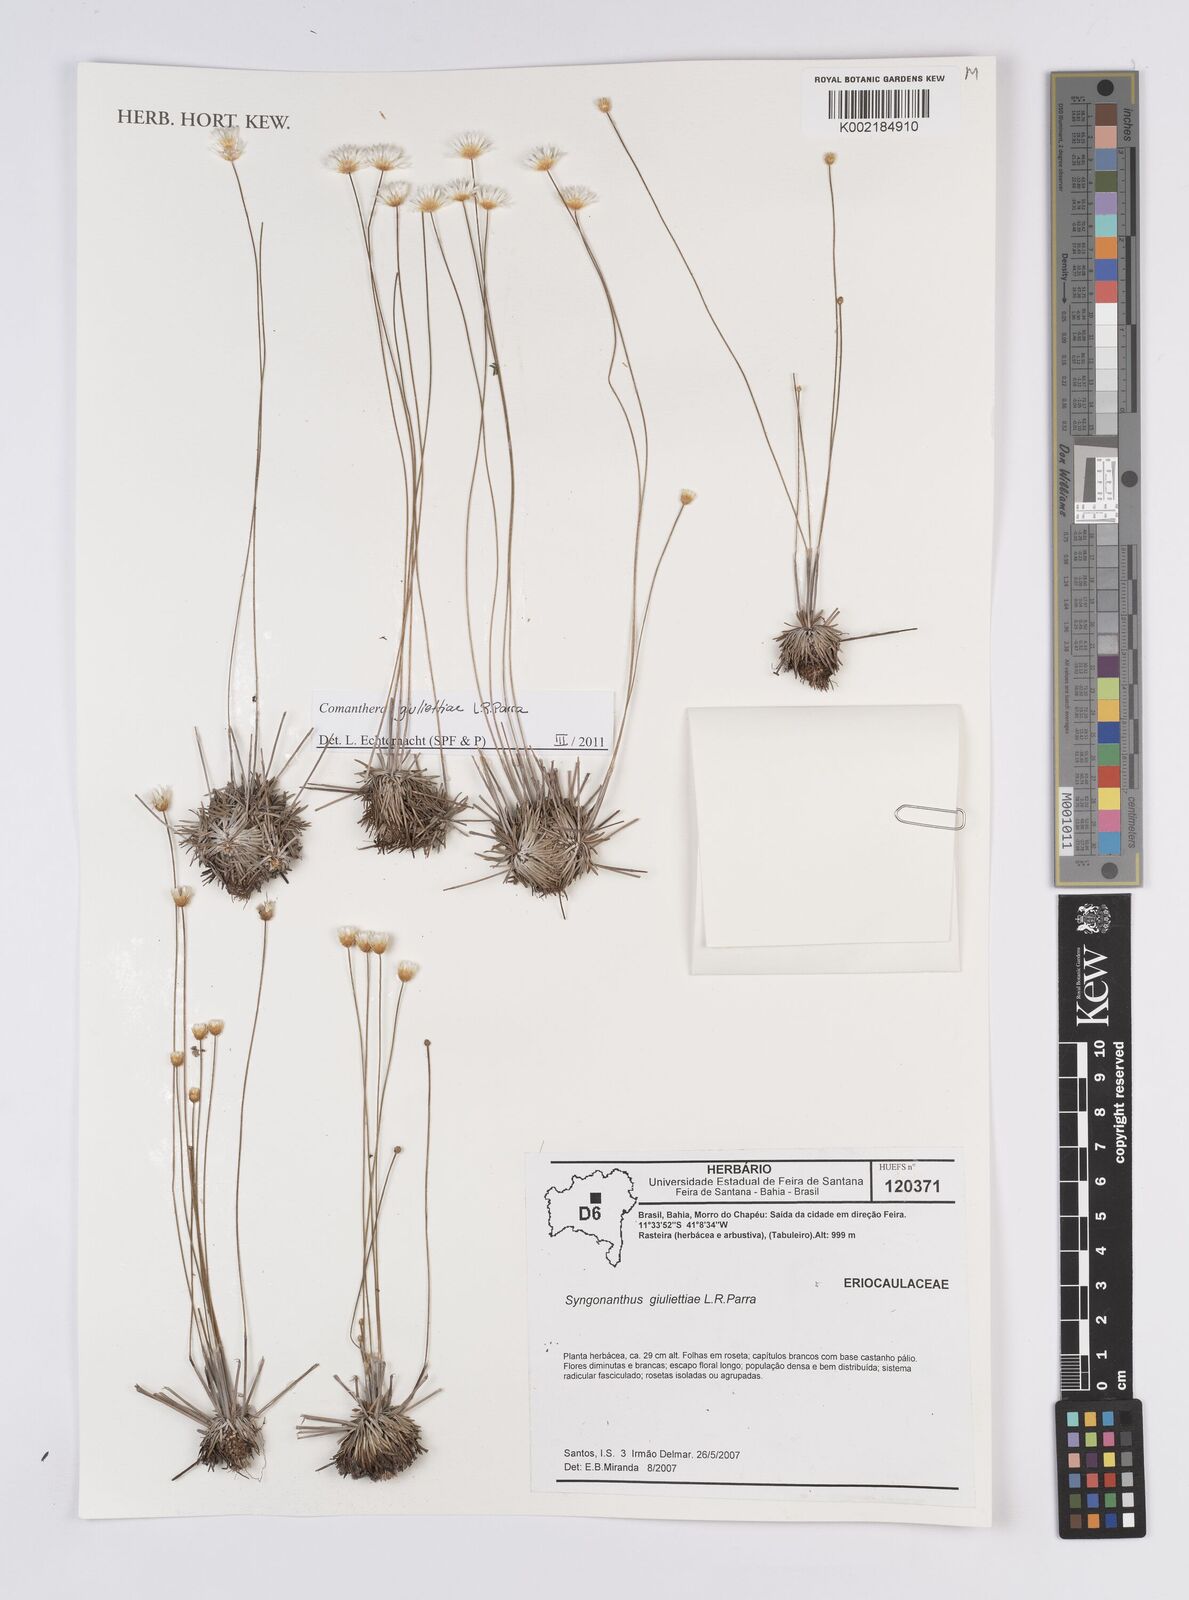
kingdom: Plantae
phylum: Tracheophyta
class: Liliopsida
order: Poales
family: Eriocaulaceae
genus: Comanthera
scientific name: Comanthera giuliettiae
